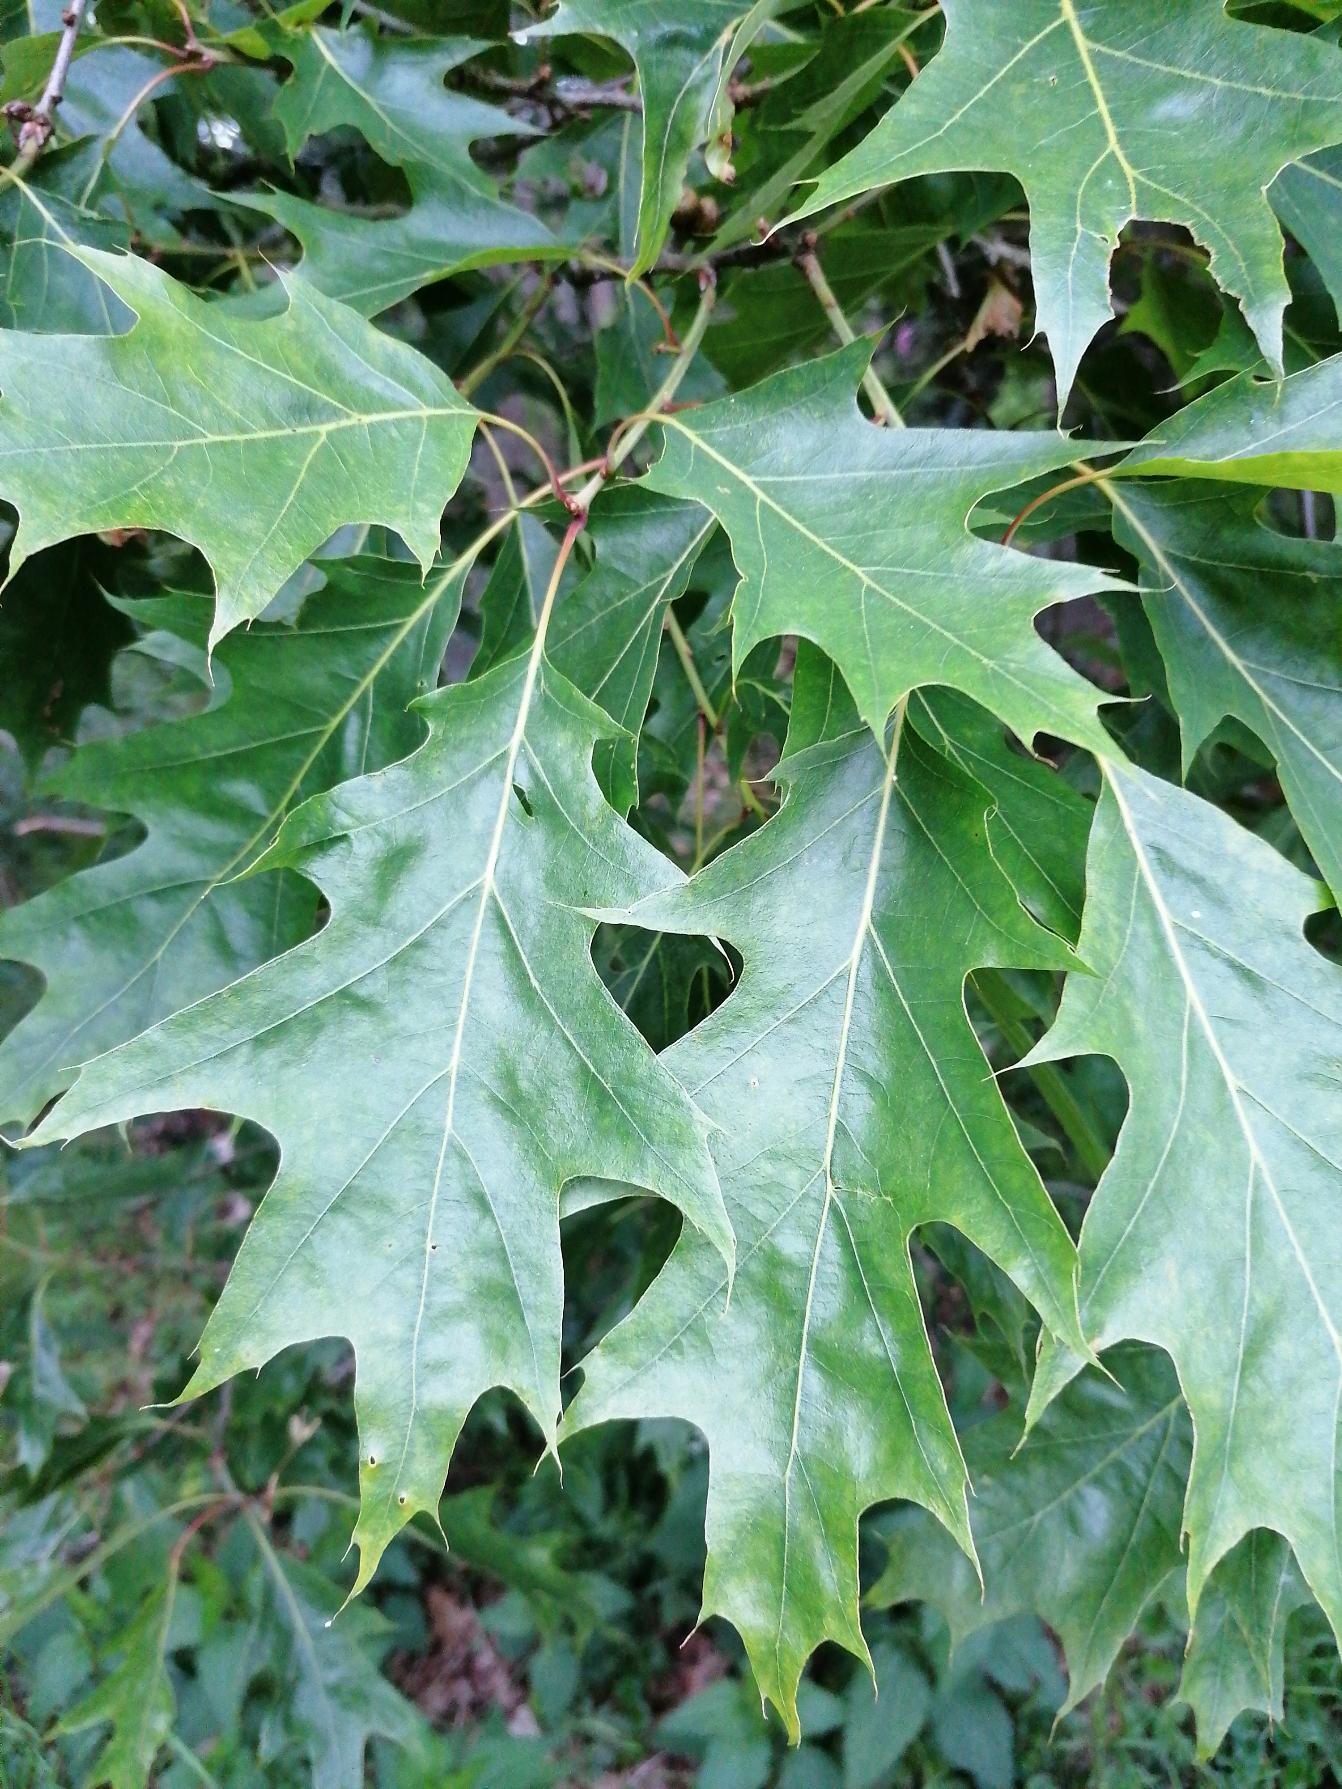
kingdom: Plantae
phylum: Tracheophyta
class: Magnoliopsida
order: Fagales
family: Fagaceae
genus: Quercus
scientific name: Quercus rubra
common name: Rød-eg
